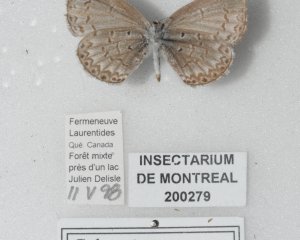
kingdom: Animalia
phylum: Arthropoda
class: Insecta
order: Lepidoptera
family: Lycaenidae
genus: Celastrina
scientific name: Celastrina lucia
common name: Northern Spring Azure
